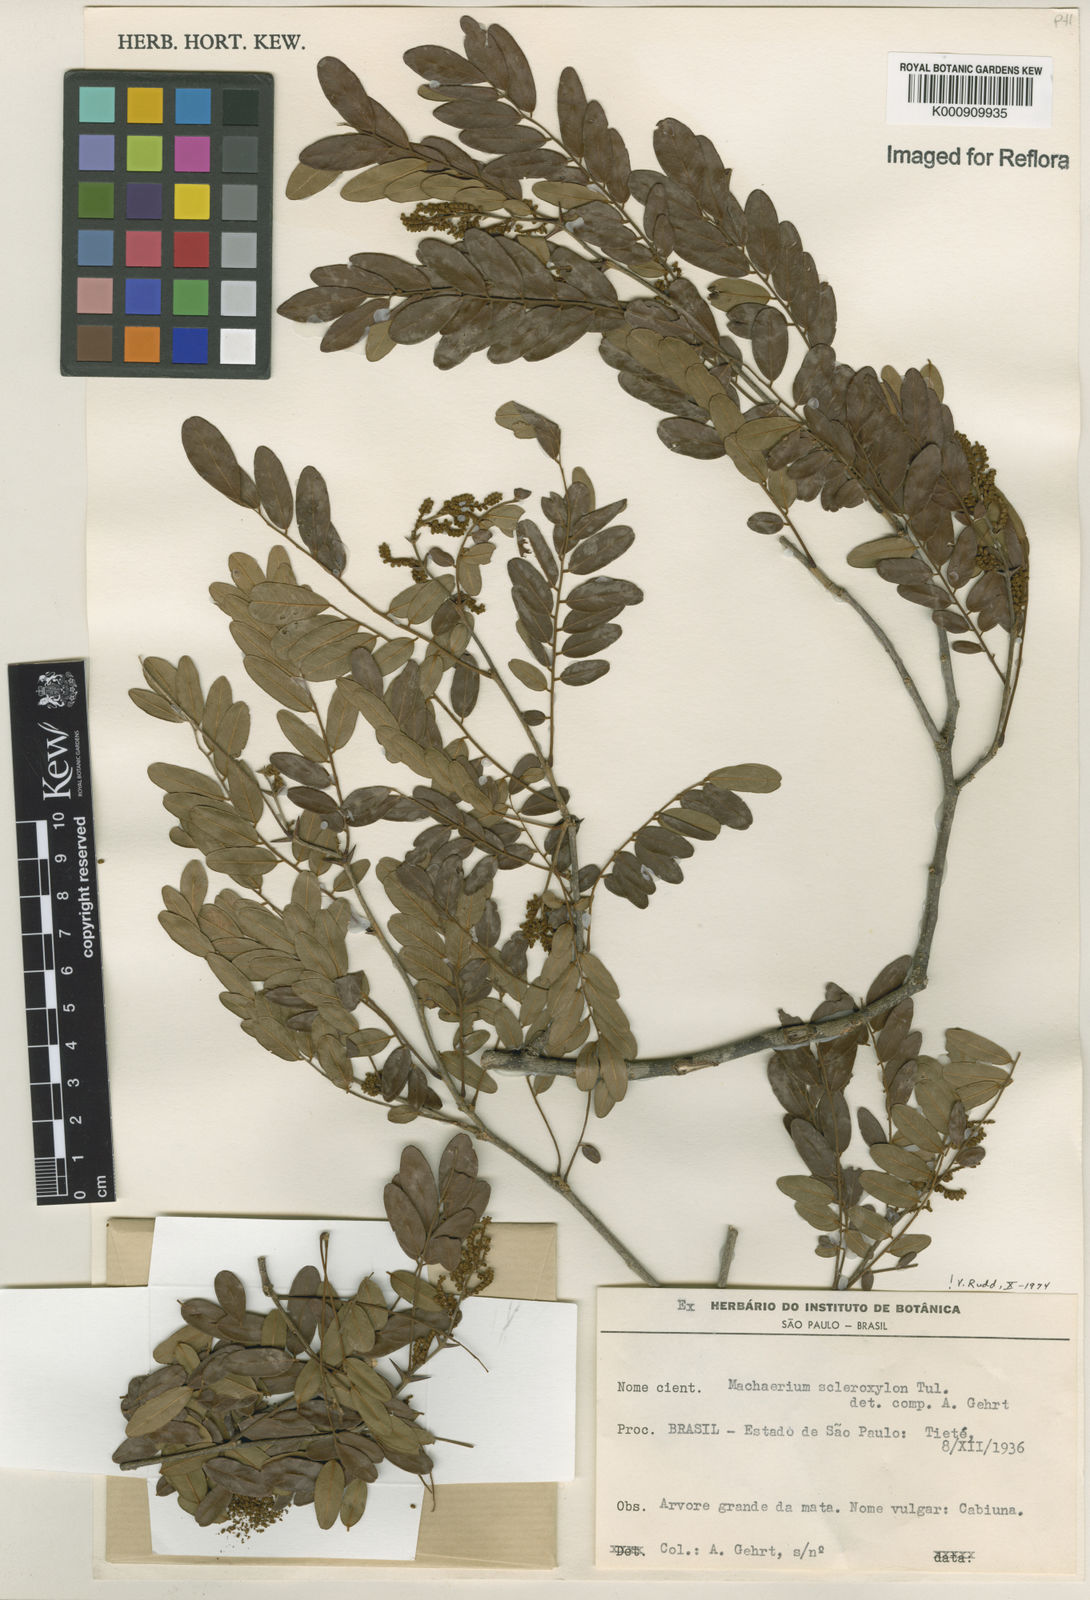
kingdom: Plantae
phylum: Tracheophyta
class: Magnoliopsida
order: Fabales
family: Fabaceae
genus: Machaerium
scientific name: Machaerium scleroxylon
